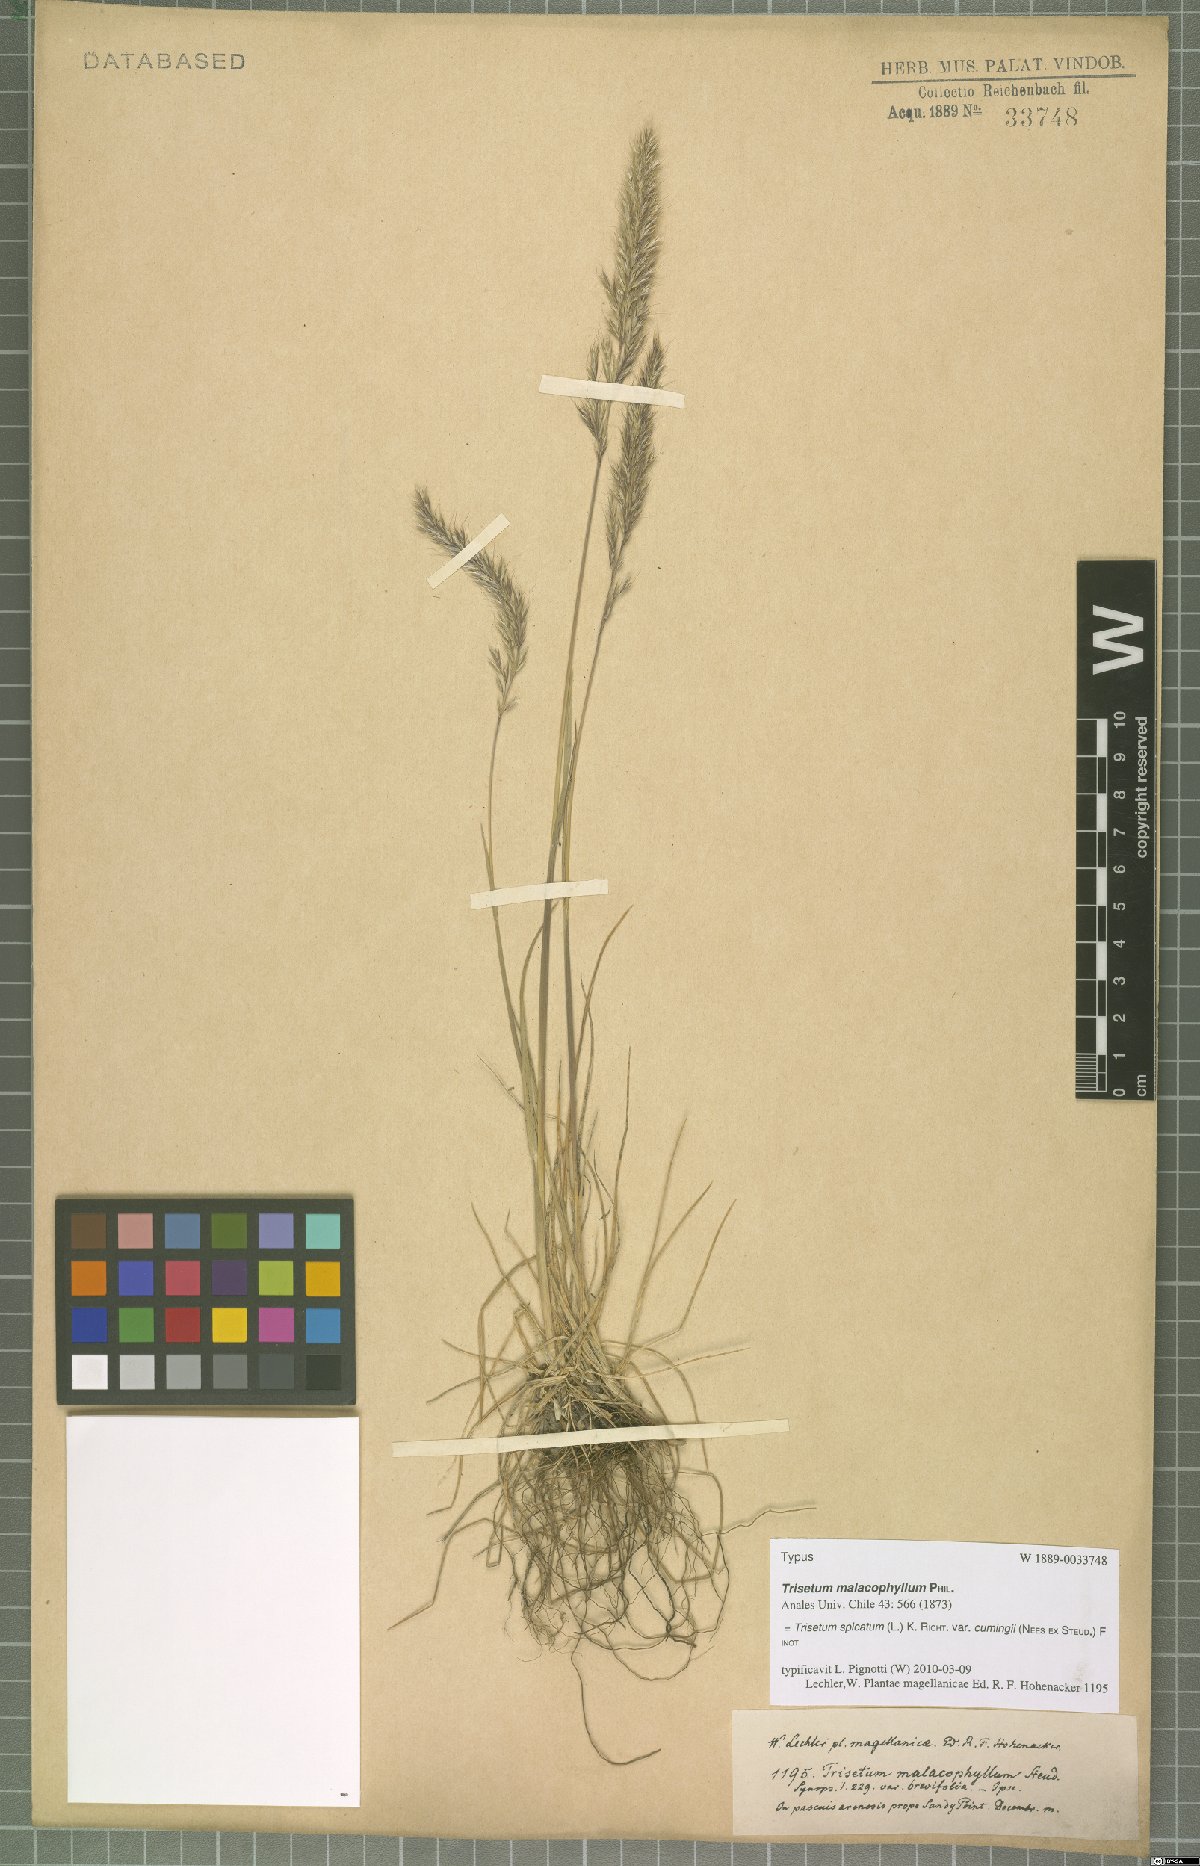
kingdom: Plantae
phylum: Tracheophyta
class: Liliopsida
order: Poales
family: Poaceae
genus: Koeleria
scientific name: Koeleria cumingii
